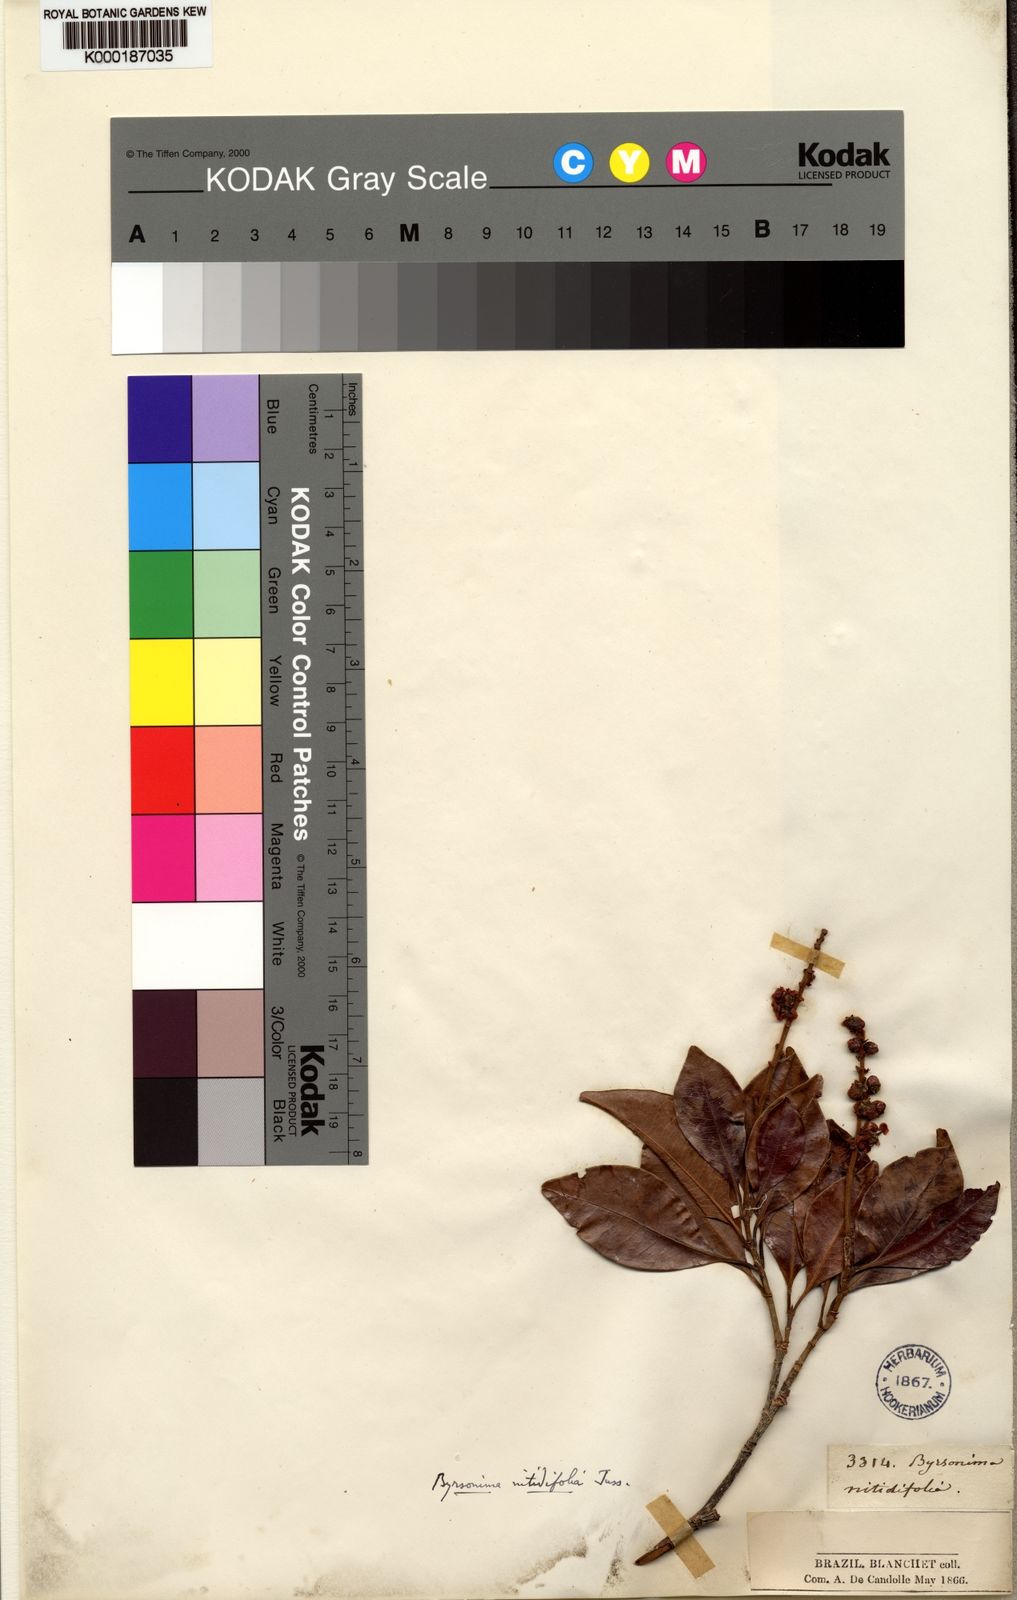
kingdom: Plantae
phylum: Tracheophyta
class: Magnoliopsida
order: Malpighiales
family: Malpighiaceae
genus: Byrsonima
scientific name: Byrsonima nitidifolia
